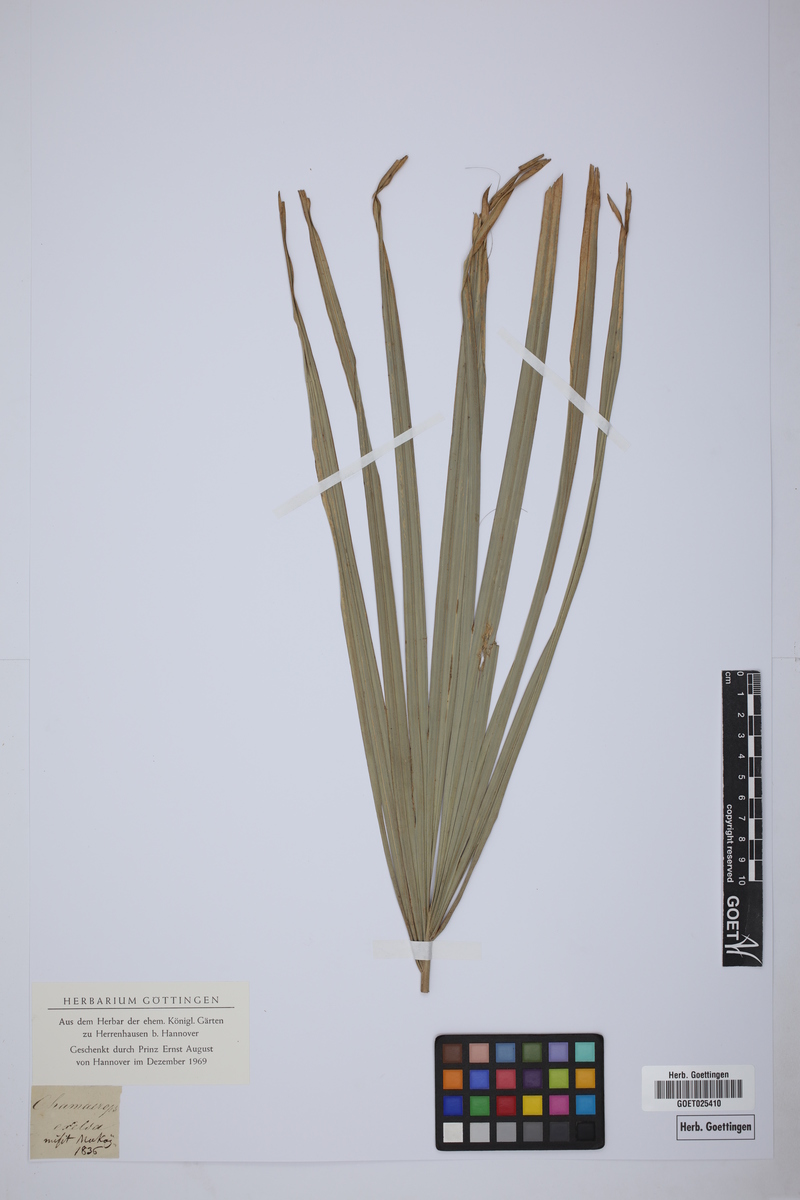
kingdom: Plantae
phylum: Tracheophyta
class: Liliopsida
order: Arecales
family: Arecaceae
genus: Rhapis
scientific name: Rhapis excelsa
